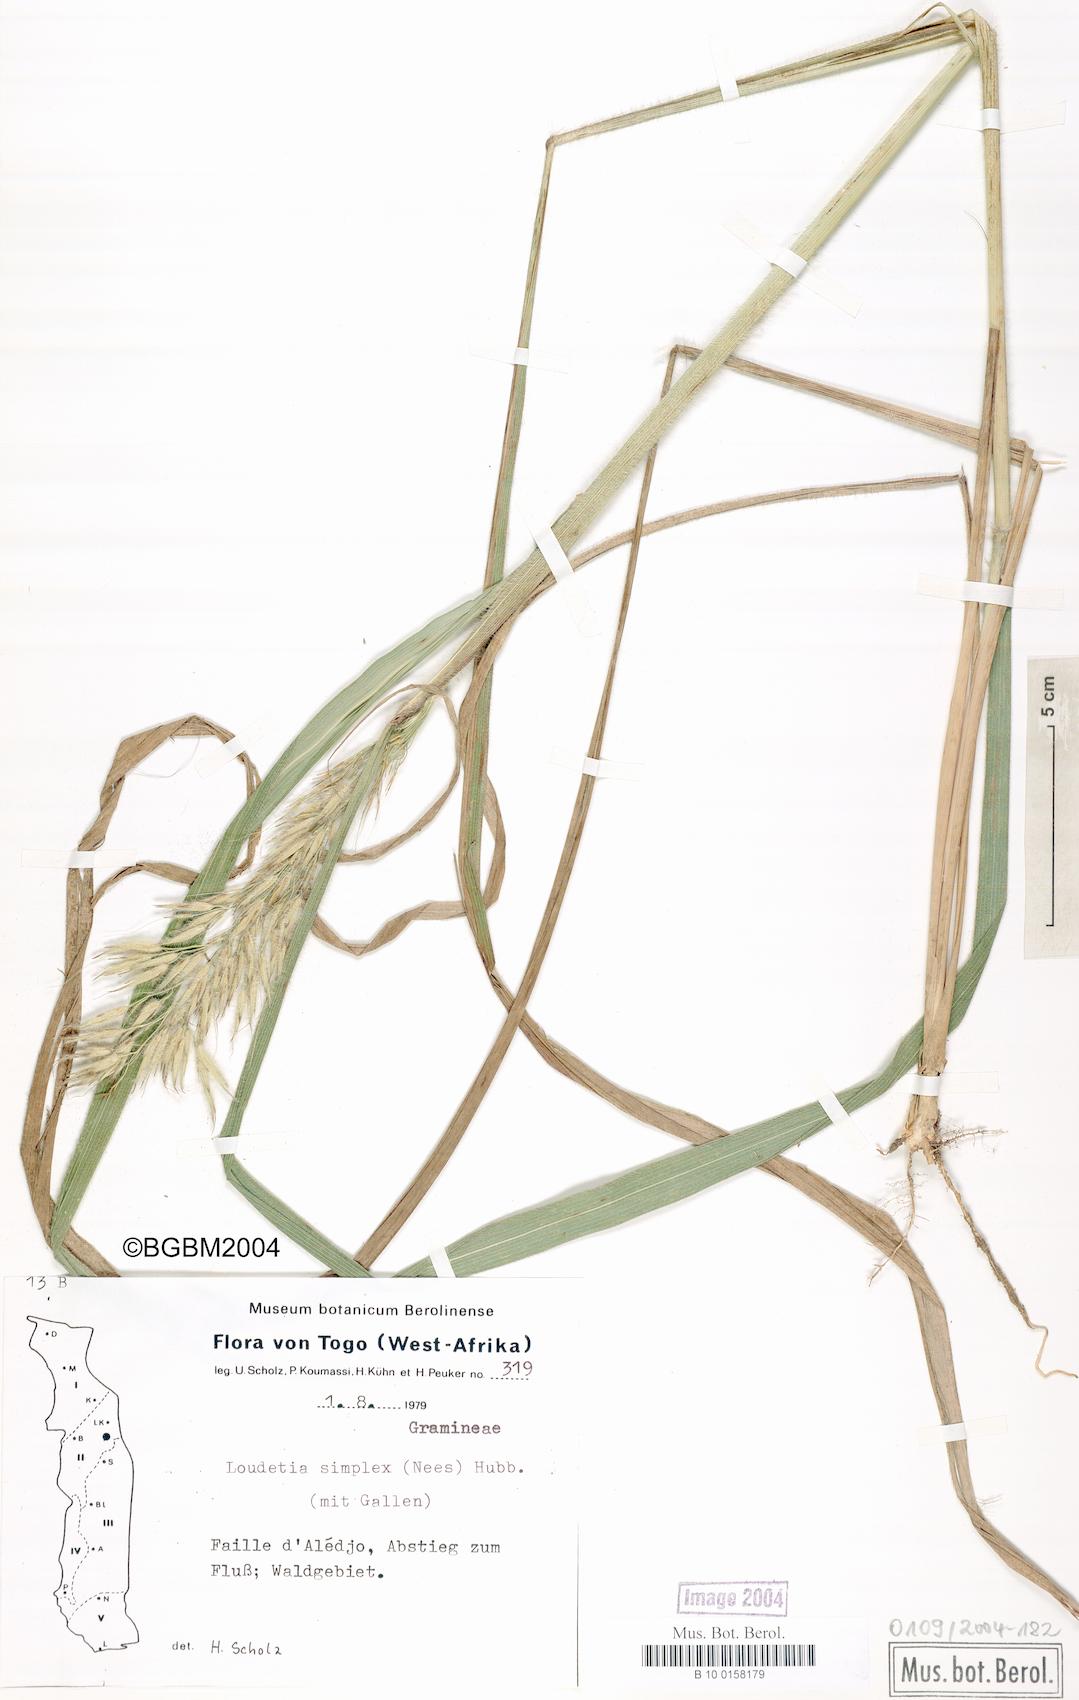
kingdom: Plantae
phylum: Tracheophyta
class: Liliopsida
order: Poales
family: Poaceae
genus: Loudetia
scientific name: Loudetia simplex
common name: Common russet grass
